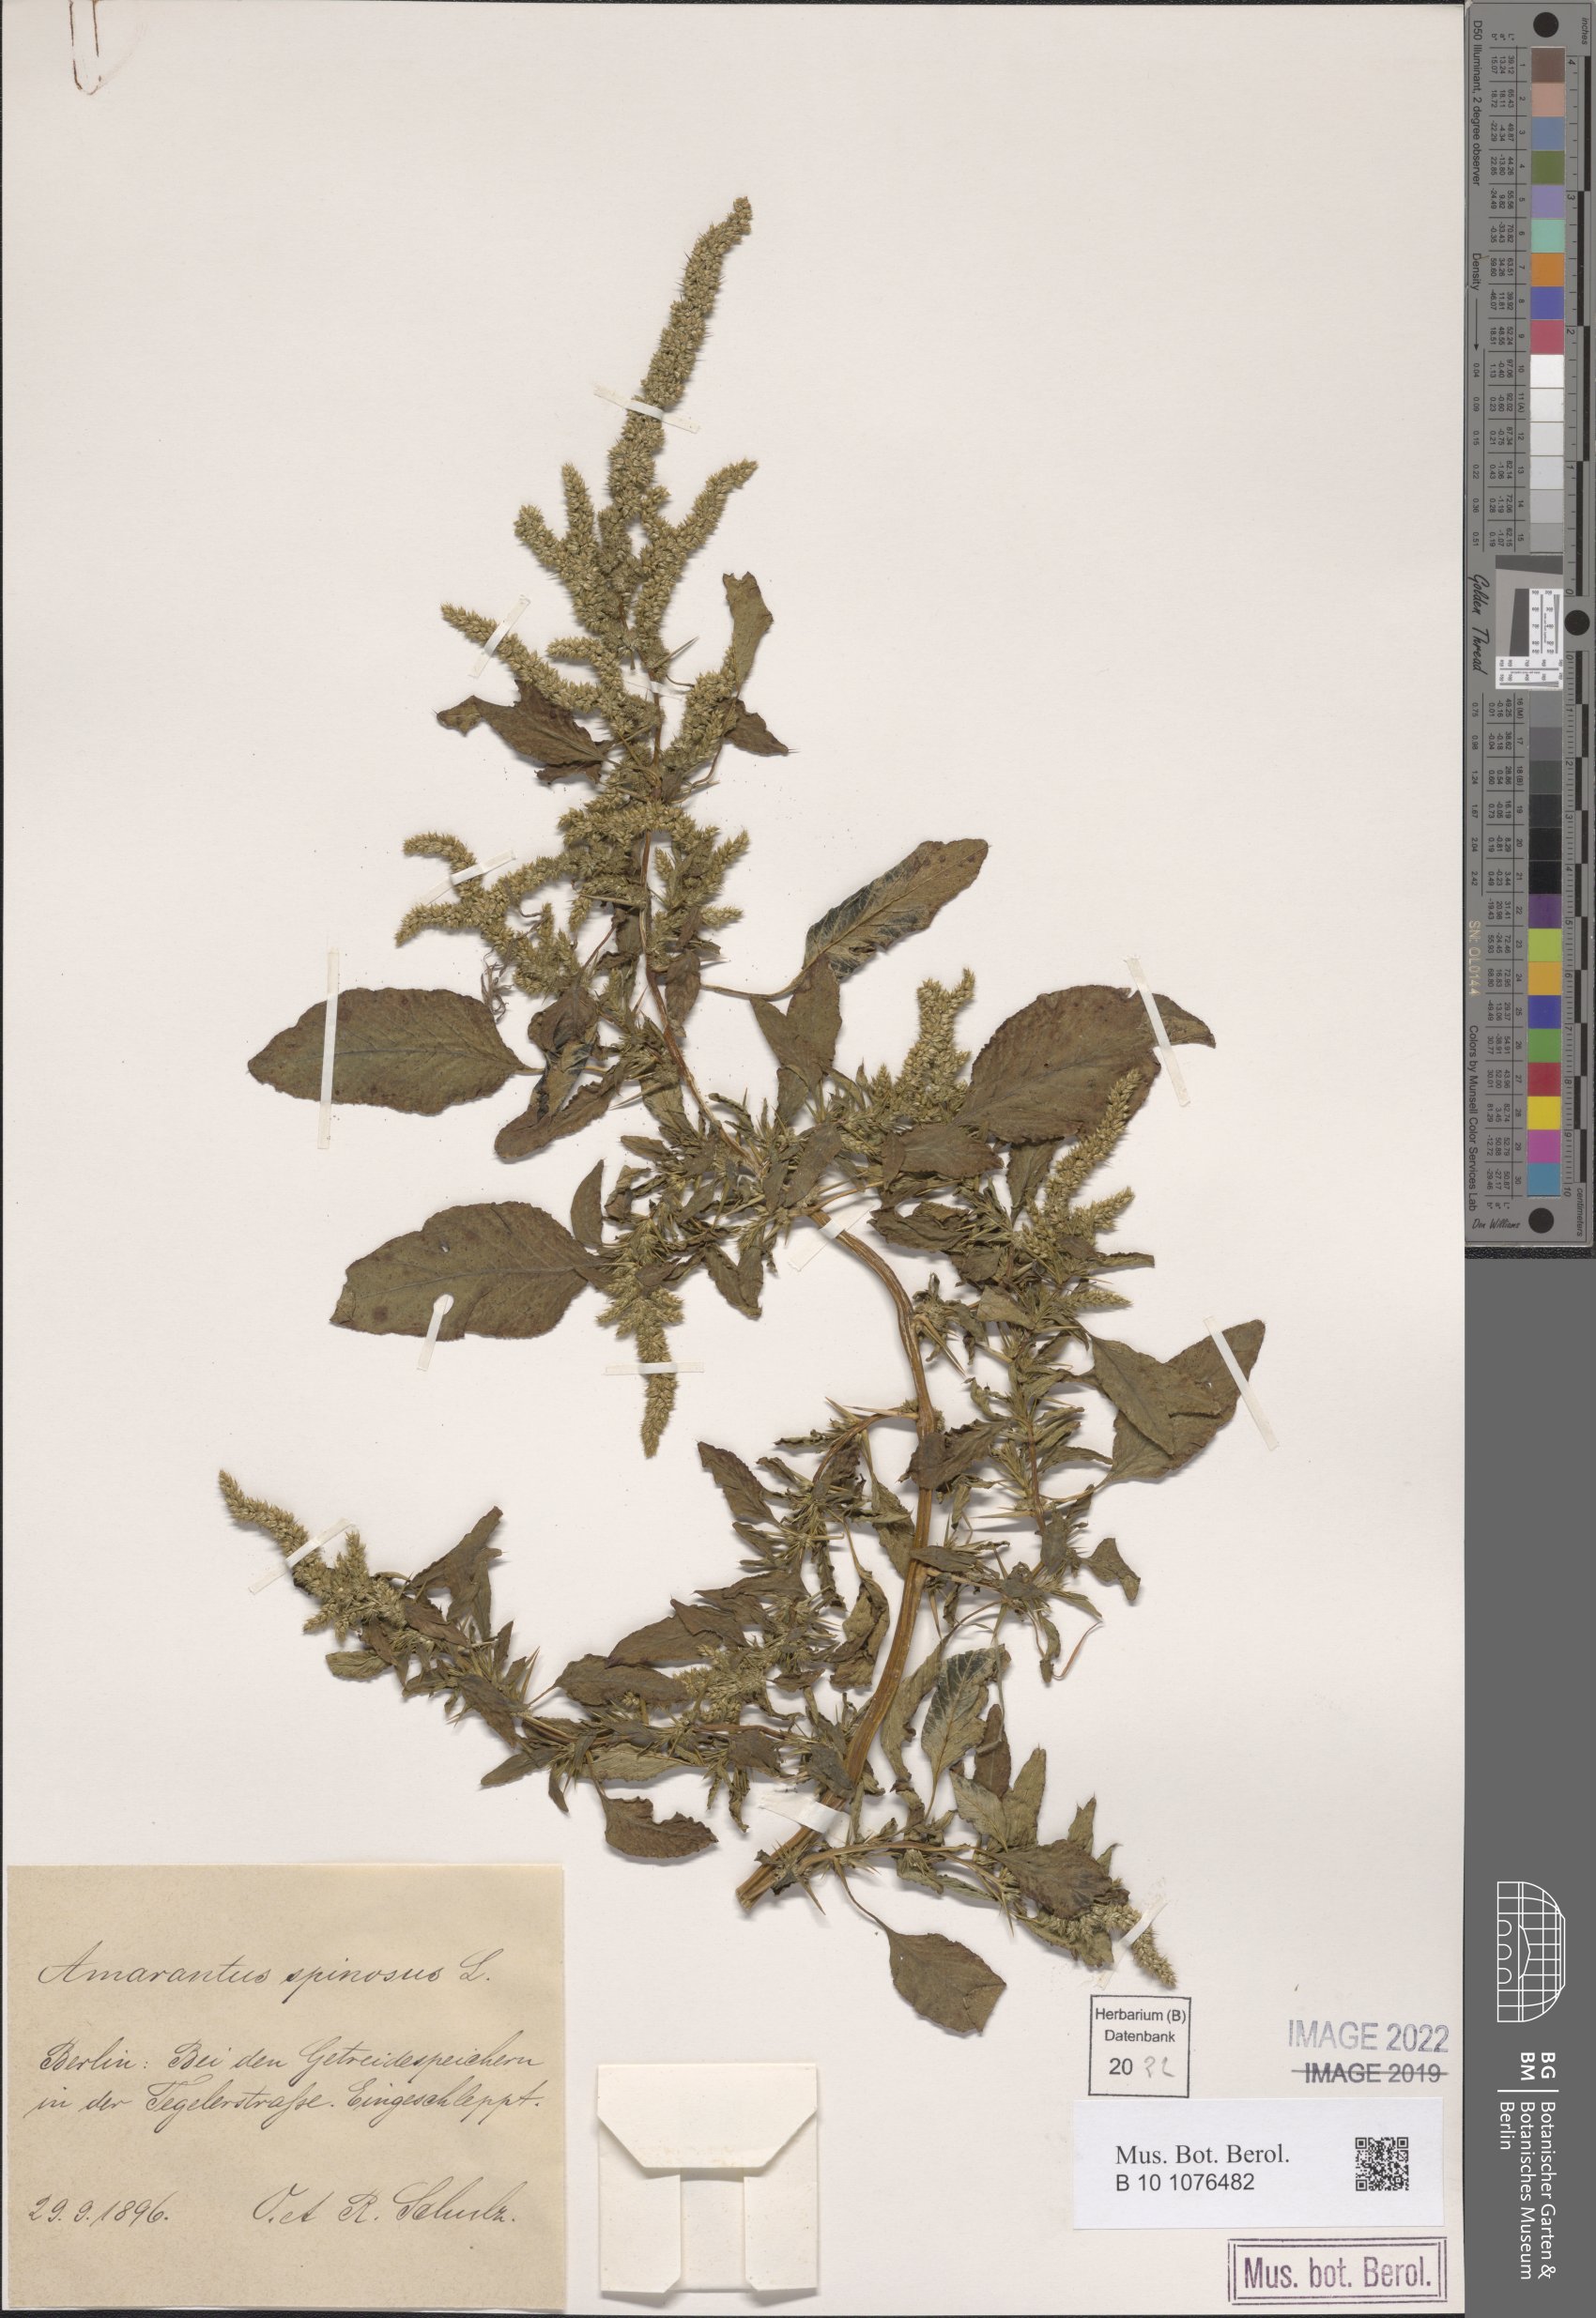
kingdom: Plantae
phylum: Tracheophyta
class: Magnoliopsida
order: Caryophyllales
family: Amaranthaceae
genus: Amaranthus
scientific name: Amaranthus spinosus
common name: Spiny amaranth
